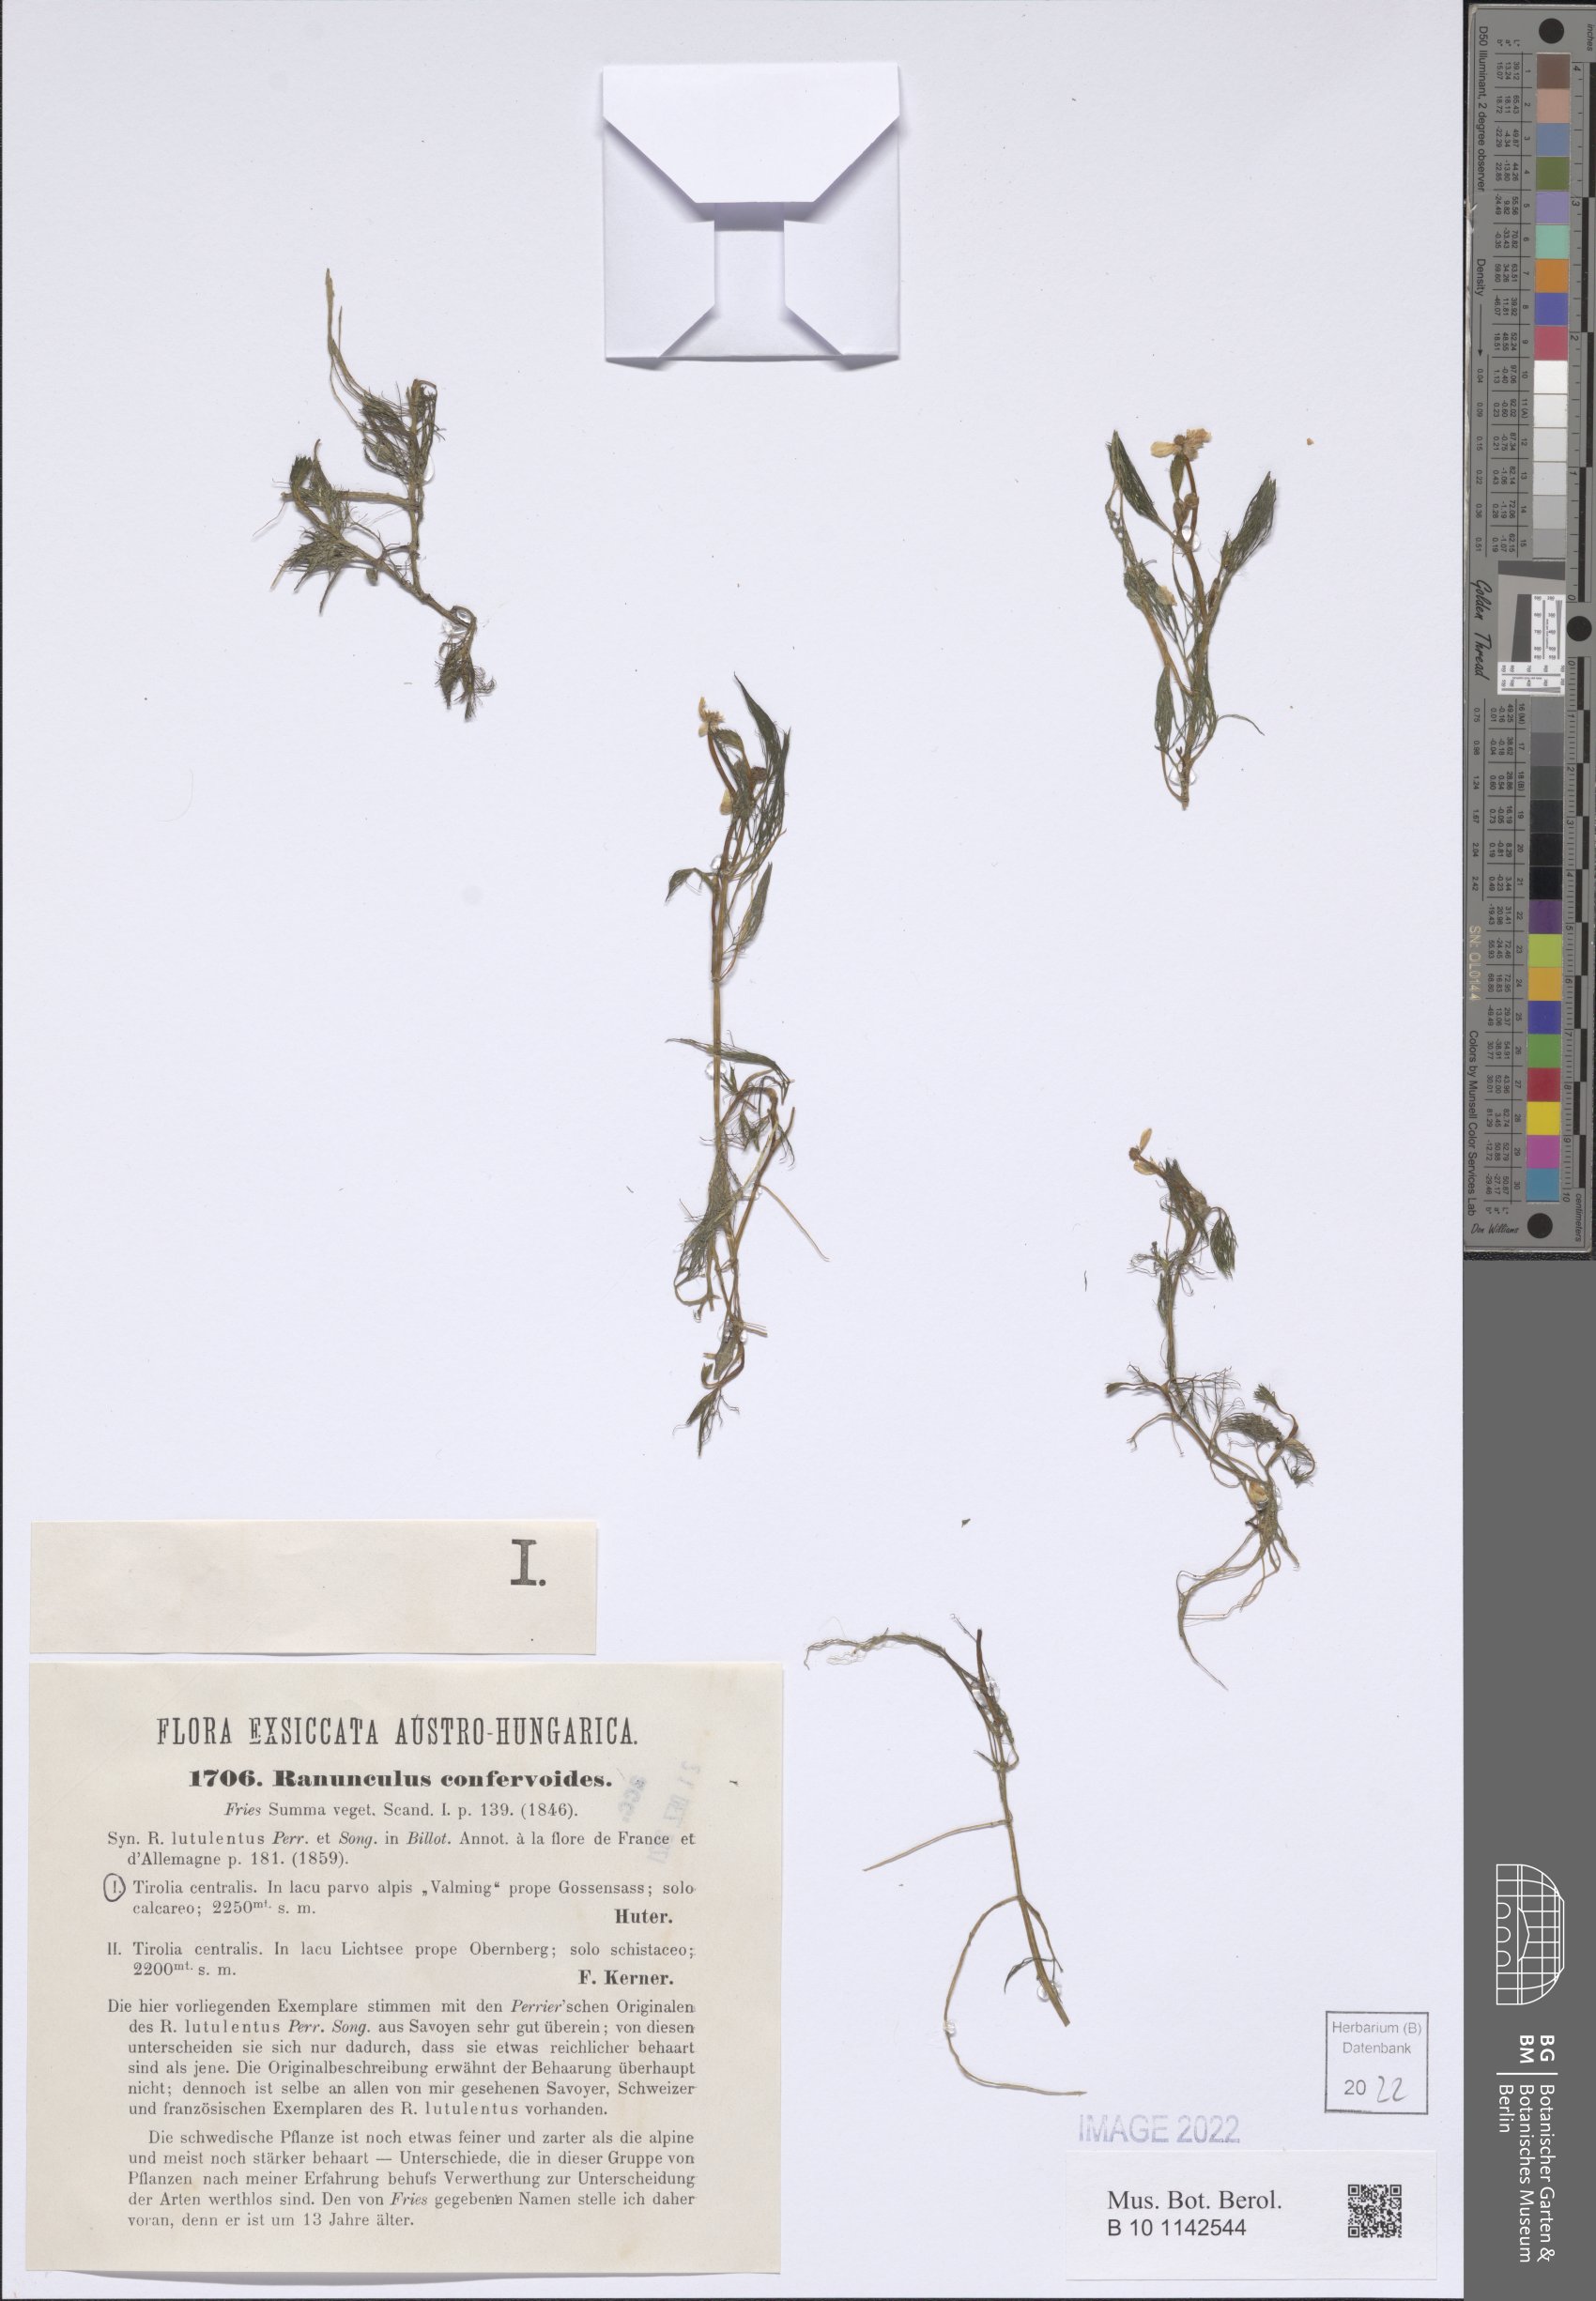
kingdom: Plantae
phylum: Tracheophyta
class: Magnoliopsida
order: Ranunculales
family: Ranunculaceae
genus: Ranunculus
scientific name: Ranunculus confervoides
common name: Delicate buttercup
